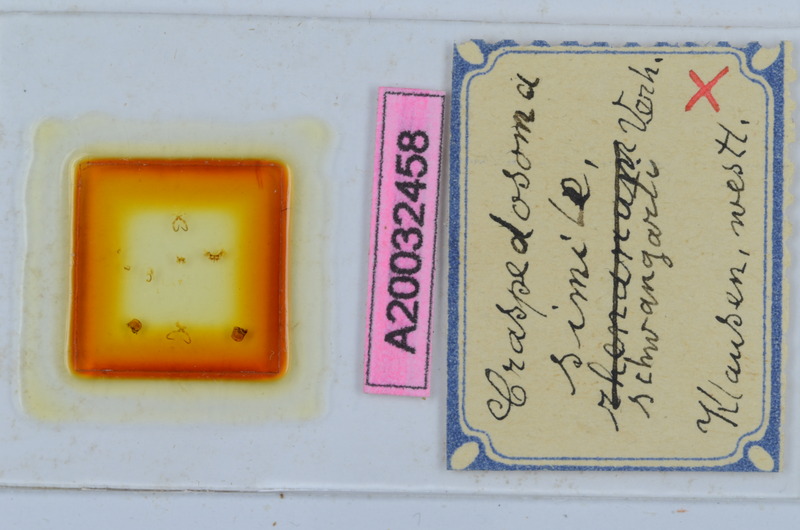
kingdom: Animalia
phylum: Arthropoda
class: Diplopoda
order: Chordeumatida
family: Craspedosomatidae
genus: Craspedosoma
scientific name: Craspedosoma rawlinsii
